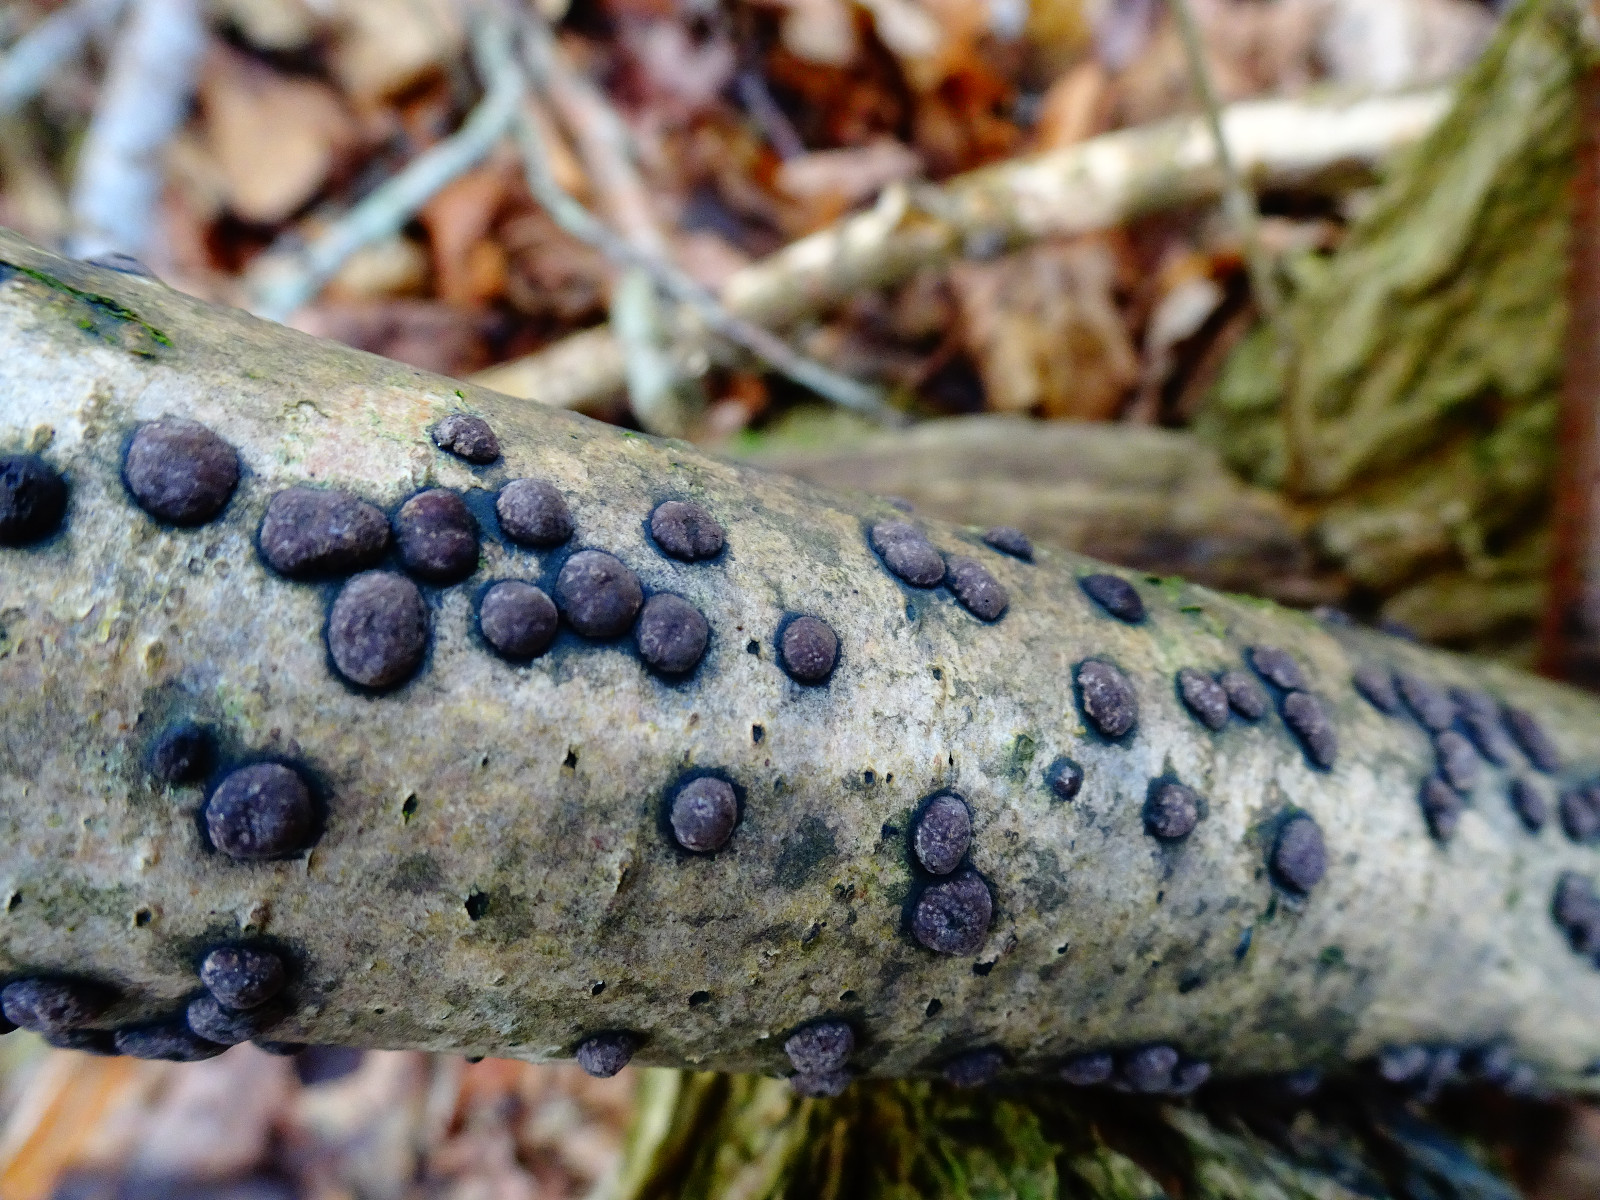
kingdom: Fungi
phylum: Ascomycota
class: Sordariomycetes
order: Xylariales
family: Hypoxylaceae
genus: Hypoxylon
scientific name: Hypoxylon fuscum
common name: kegleformet kulbær
